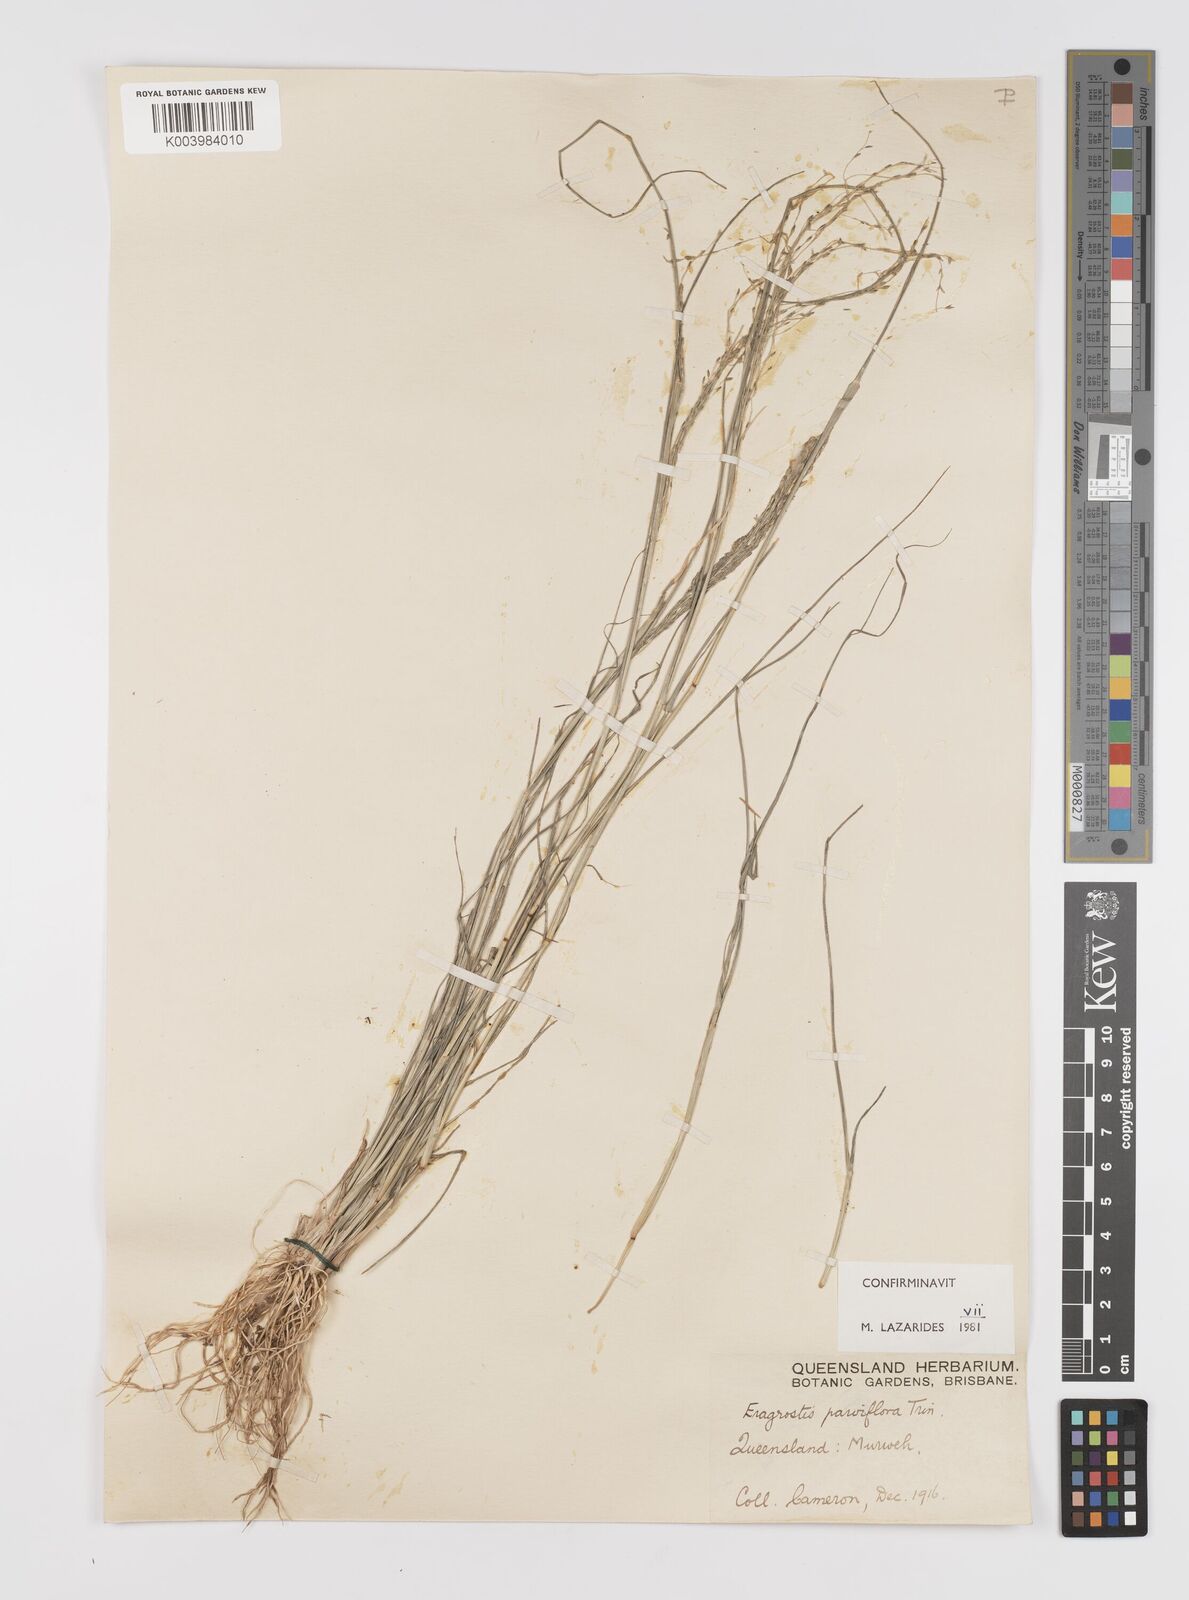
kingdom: Plantae
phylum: Tracheophyta
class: Liliopsida
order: Poales
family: Poaceae
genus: Eragrostis
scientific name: Eragrostis parviflora
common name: Weeping love-grass
